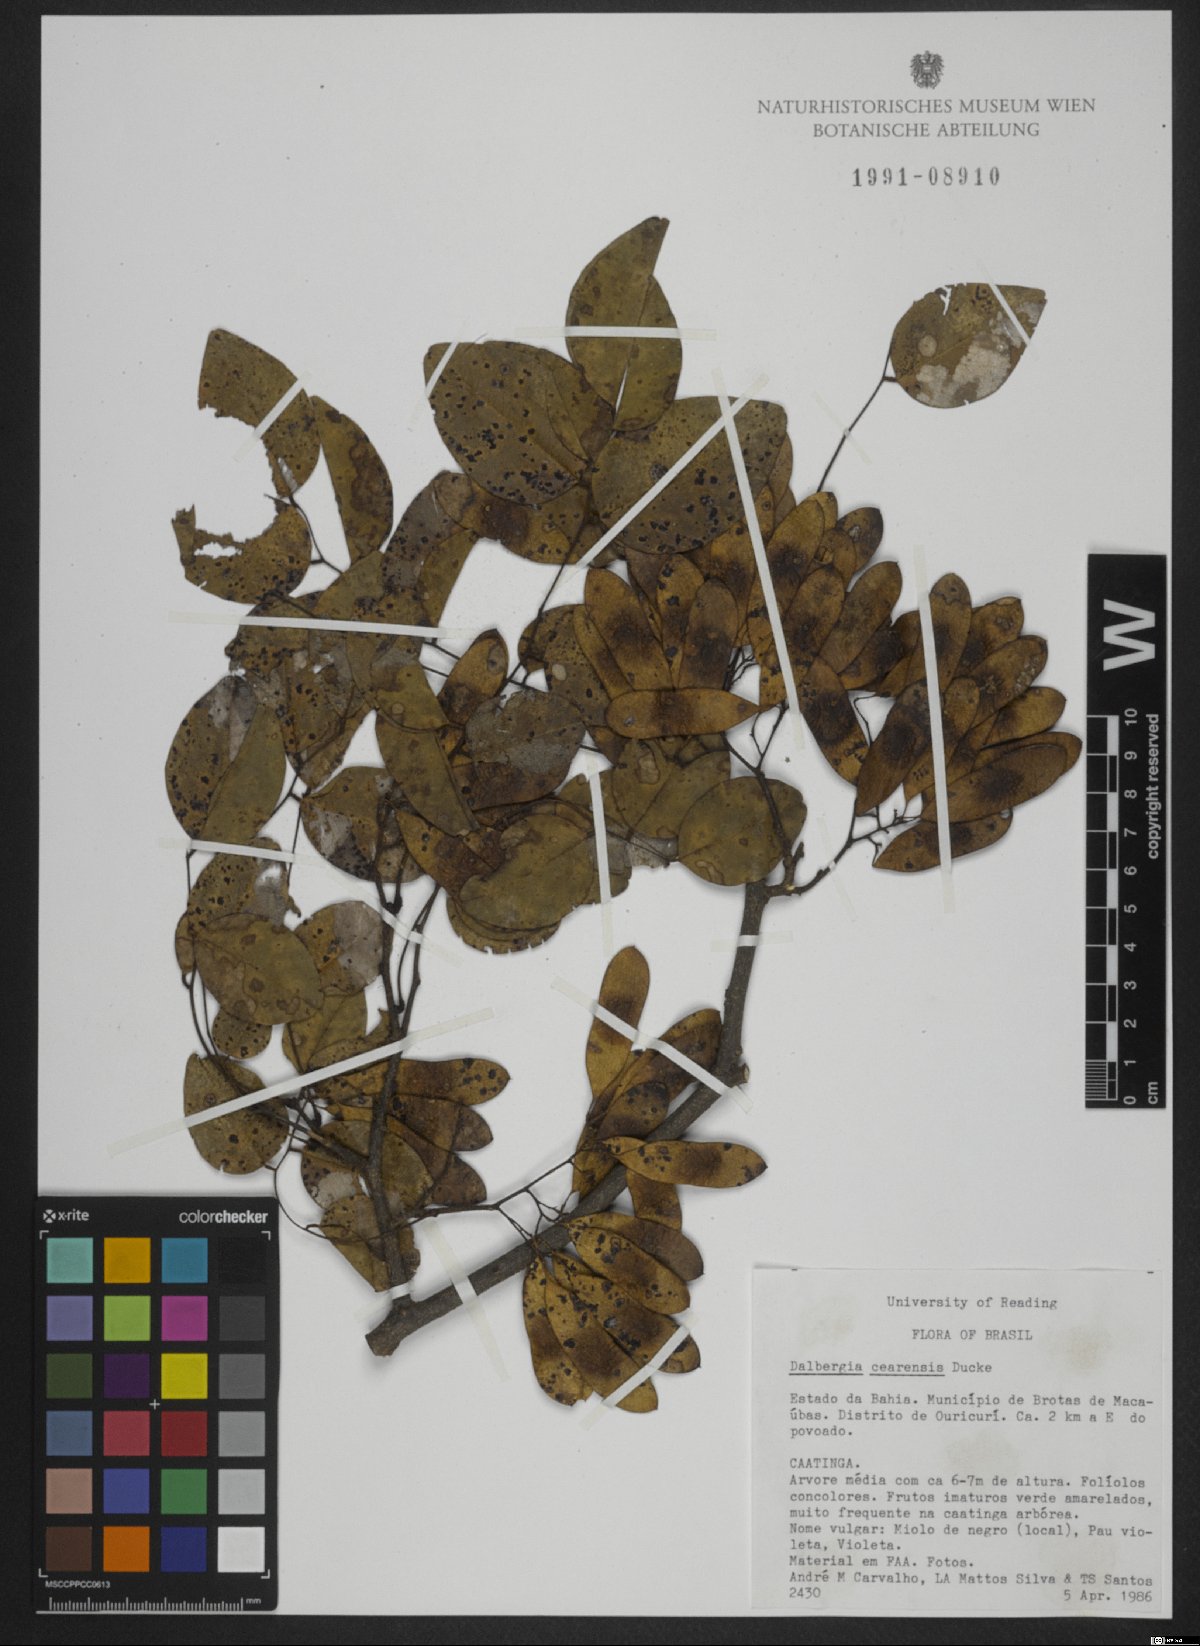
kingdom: Plantae
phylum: Tracheophyta
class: Magnoliopsida
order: Fabales
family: Fabaceae
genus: Dalbergia
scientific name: Dalbergia cearensis
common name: Brazilian-king-wood
